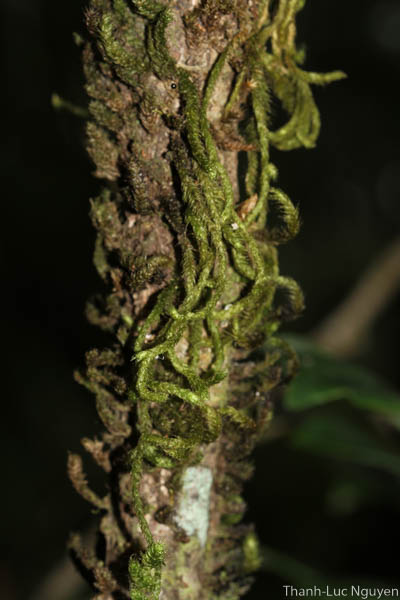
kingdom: Plantae
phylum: Bryophyta
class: Bryopsida
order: Hypnales
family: Meteoriaceae
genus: Aerobryidium
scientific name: Aerobryidium filamentosum
